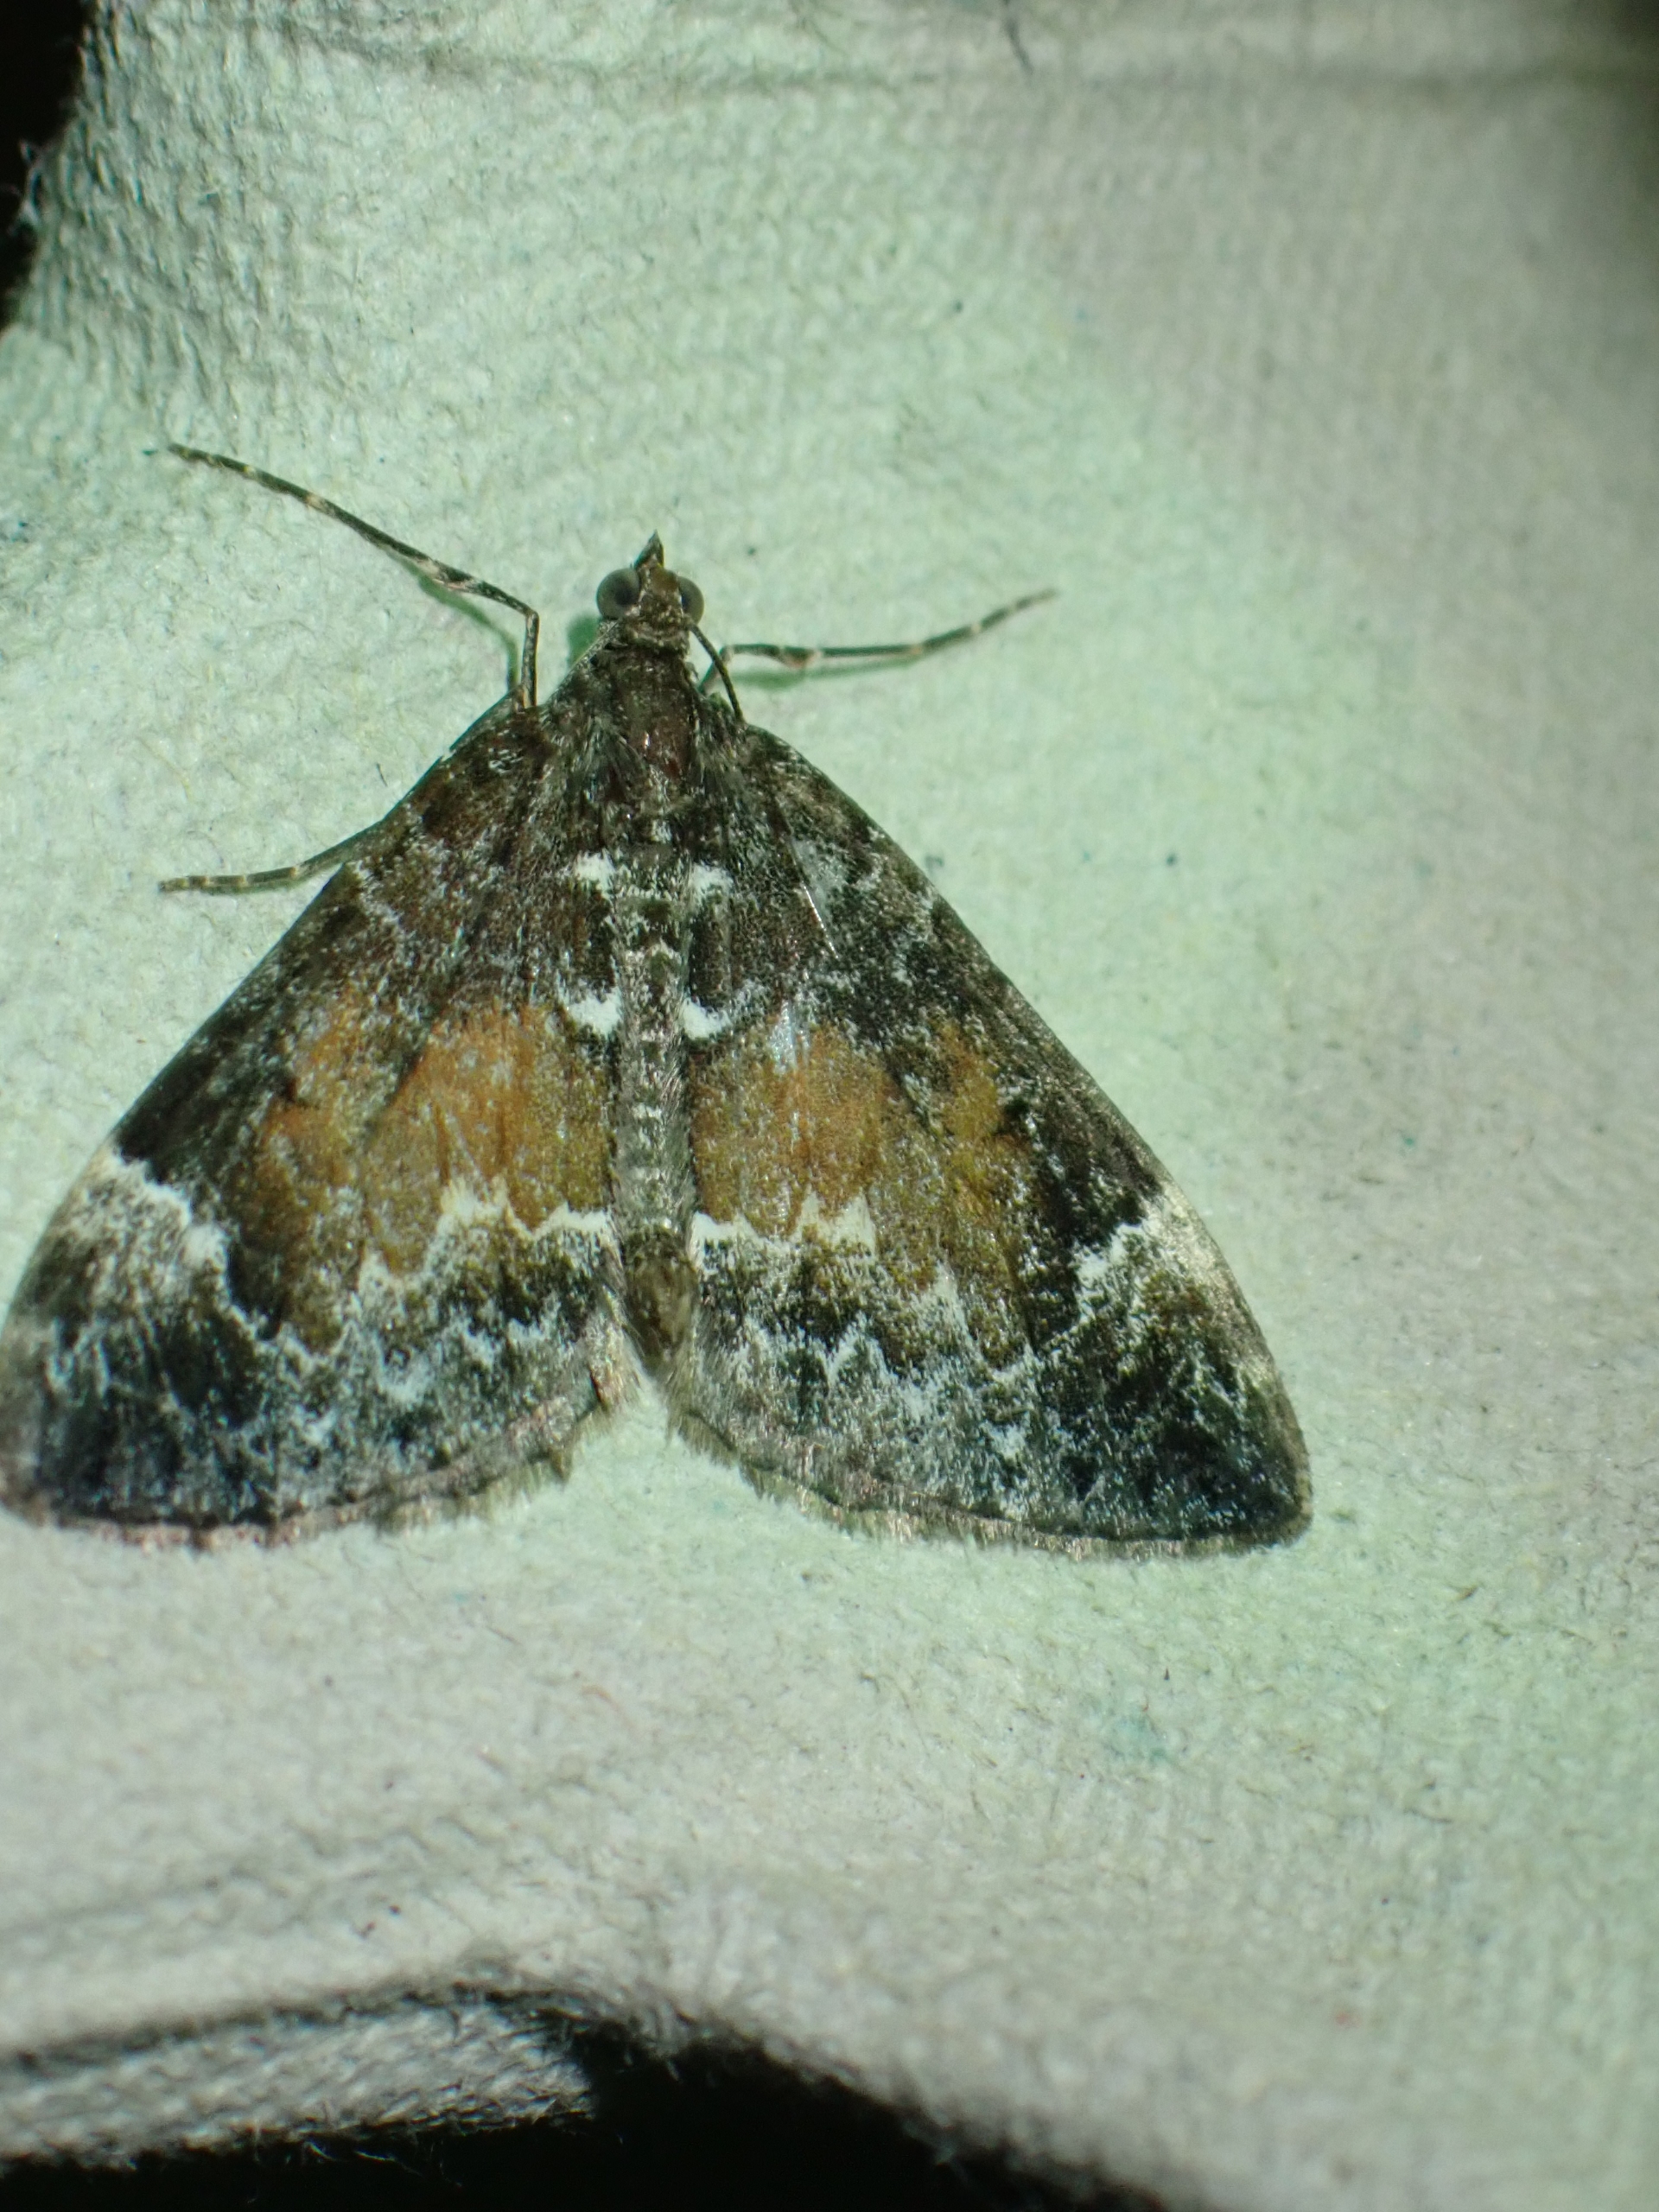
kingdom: Animalia
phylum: Arthropoda
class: Insecta
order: Lepidoptera
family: Geometridae
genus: Dysstroma
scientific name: Dysstroma truncata
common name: Jordbær-bladmåler
